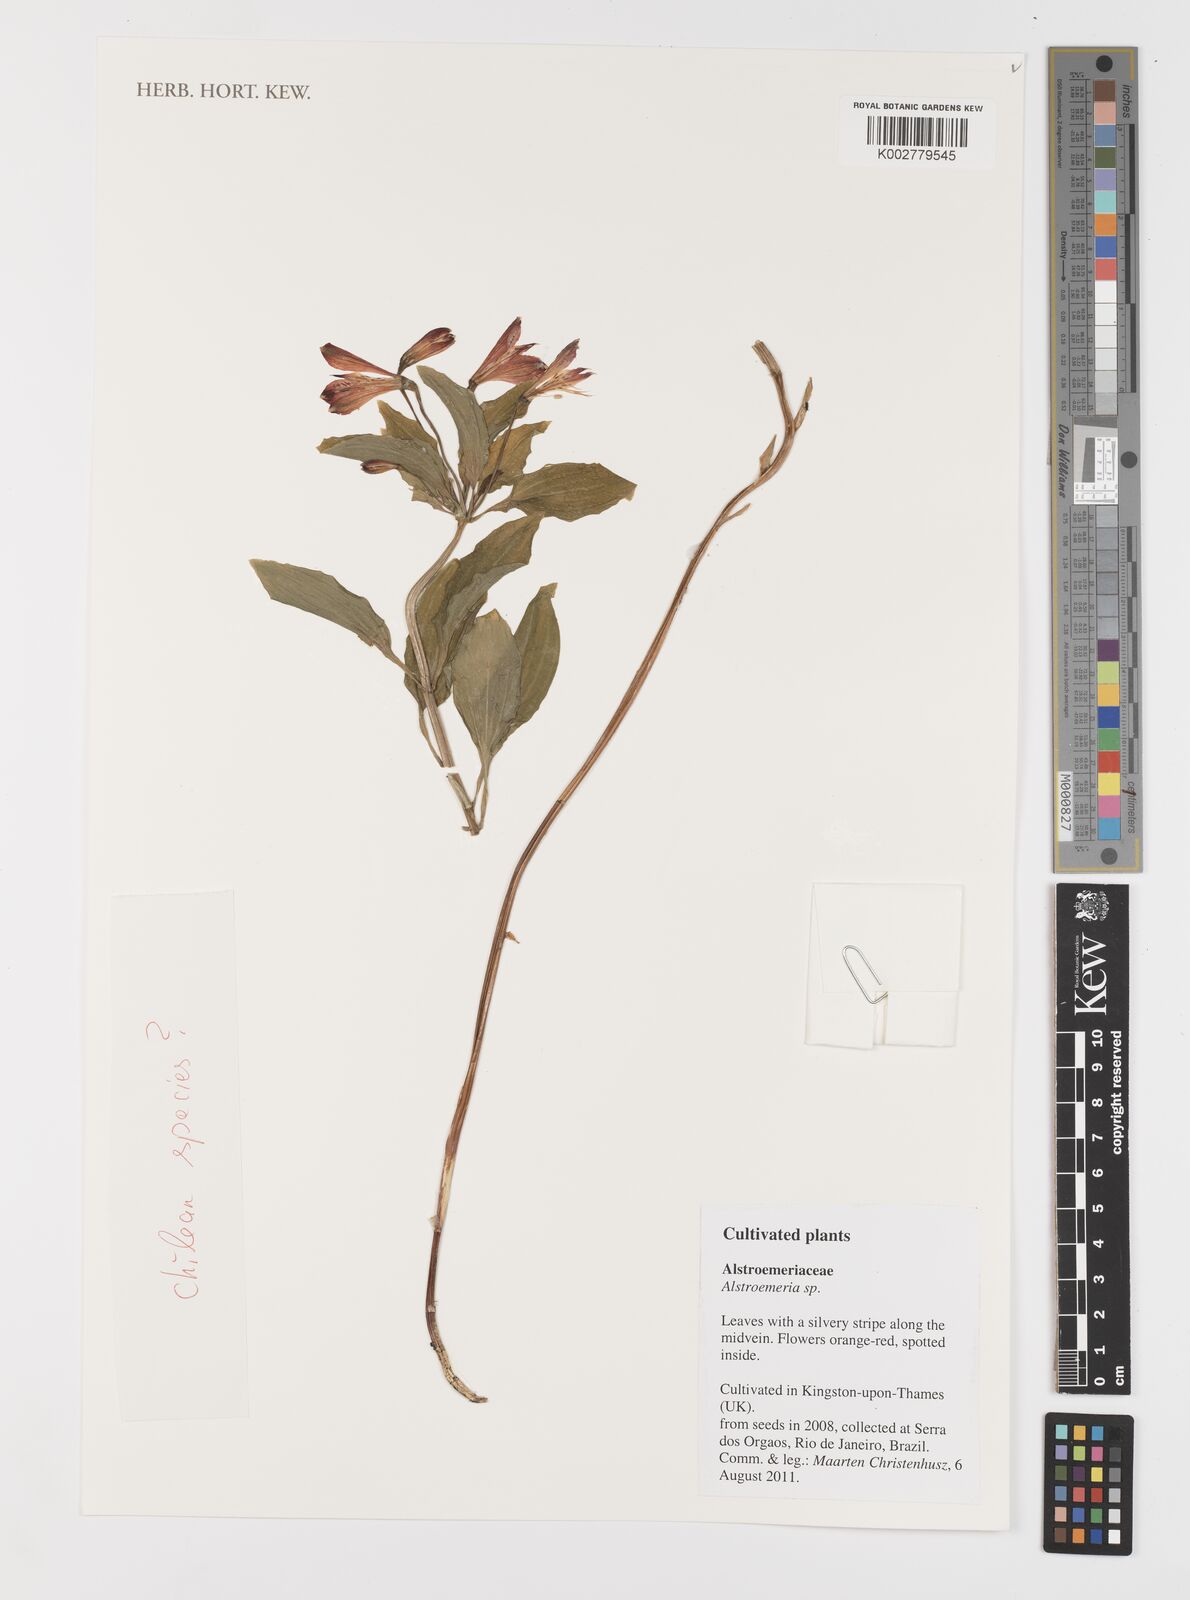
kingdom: Plantae
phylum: Tracheophyta
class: Liliopsida
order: Liliales
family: Alstroemeriaceae
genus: Alstroemeria
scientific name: Alstroemeria
